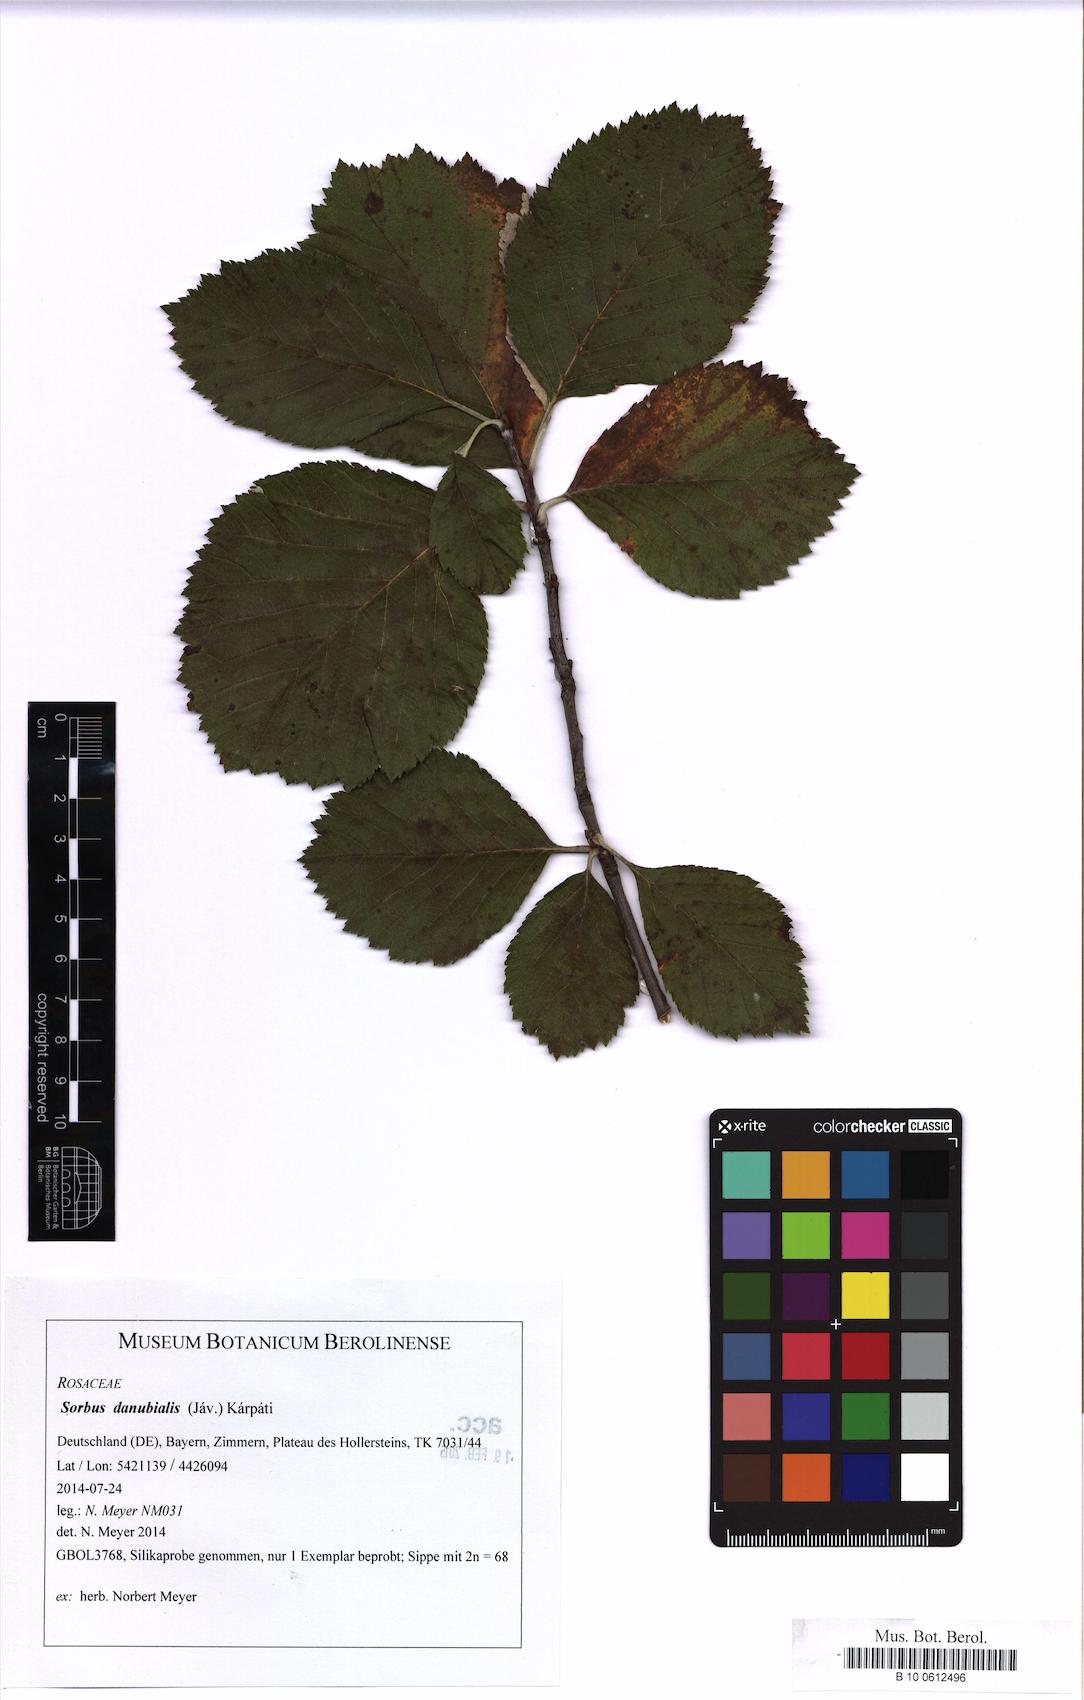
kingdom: Plantae
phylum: Tracheophyta
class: Magnoliopsida
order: Rosales
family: Rosaceae
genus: Aria
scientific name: Aria danubialis
